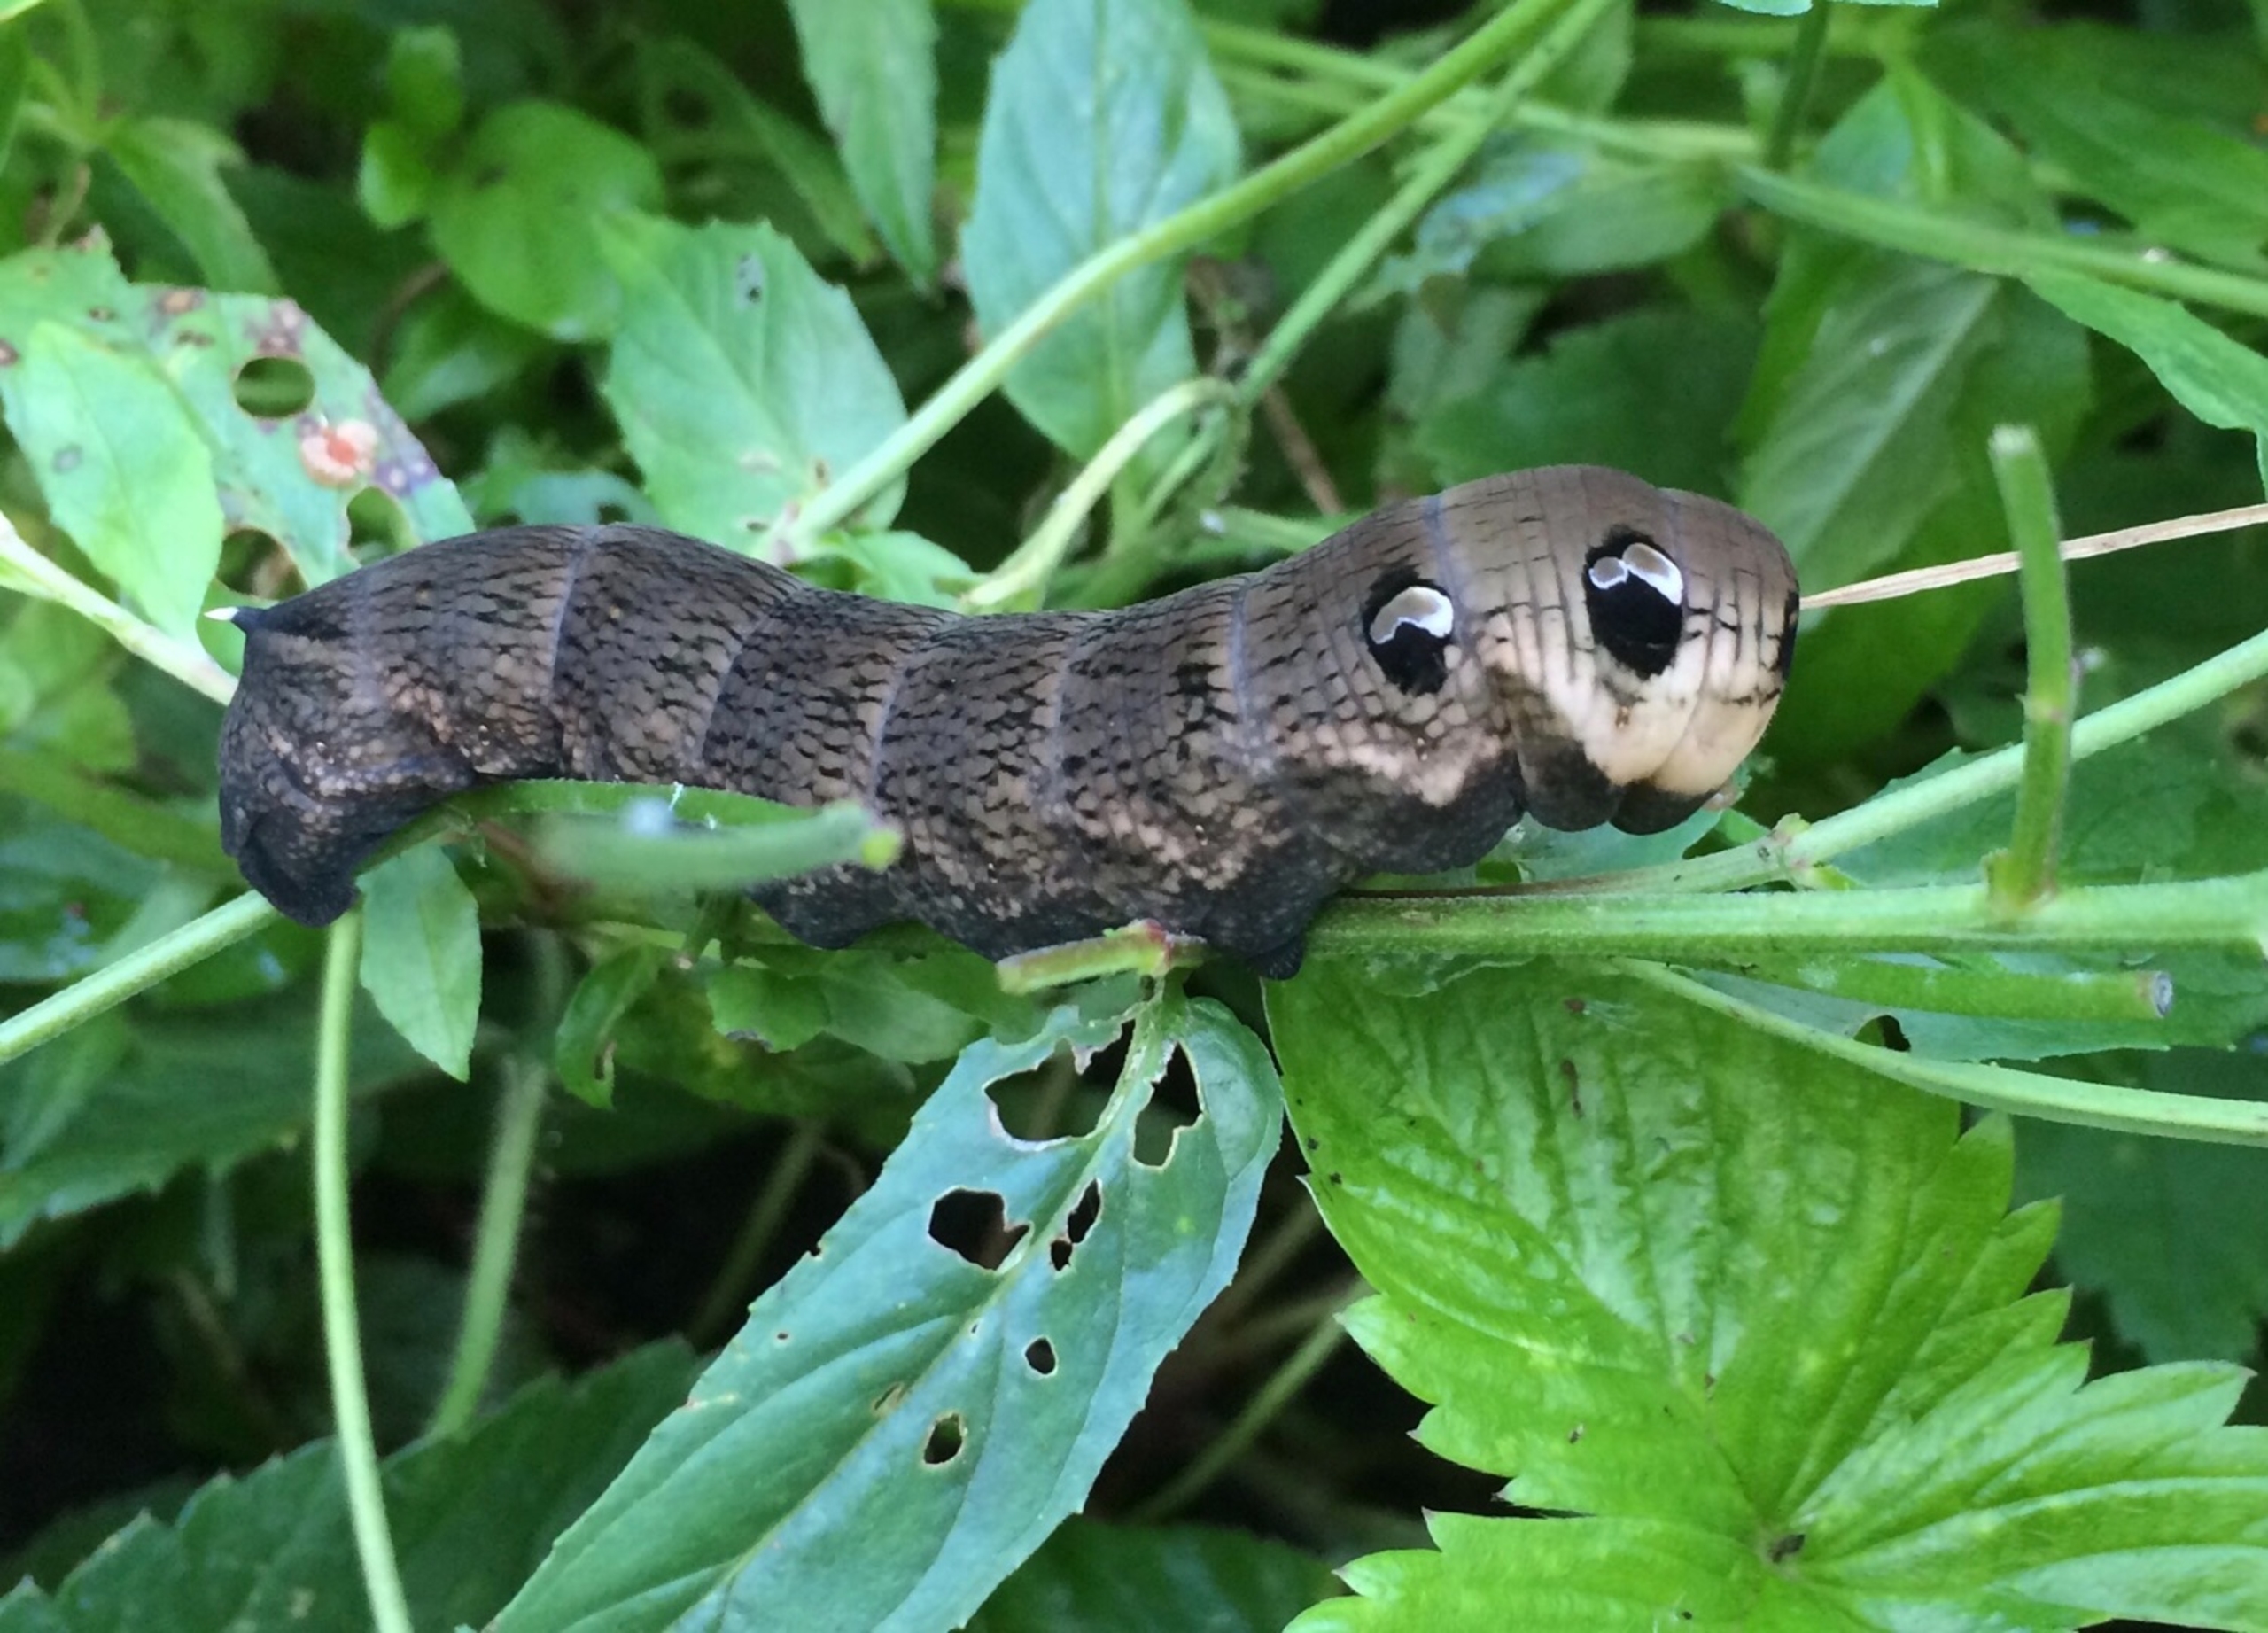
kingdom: Animalia
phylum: Arthropoda
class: Insecta
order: Lepidoptera
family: Sphingidae
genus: Deilephila
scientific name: Deilephila elpenor
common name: Dueurtsværmer
